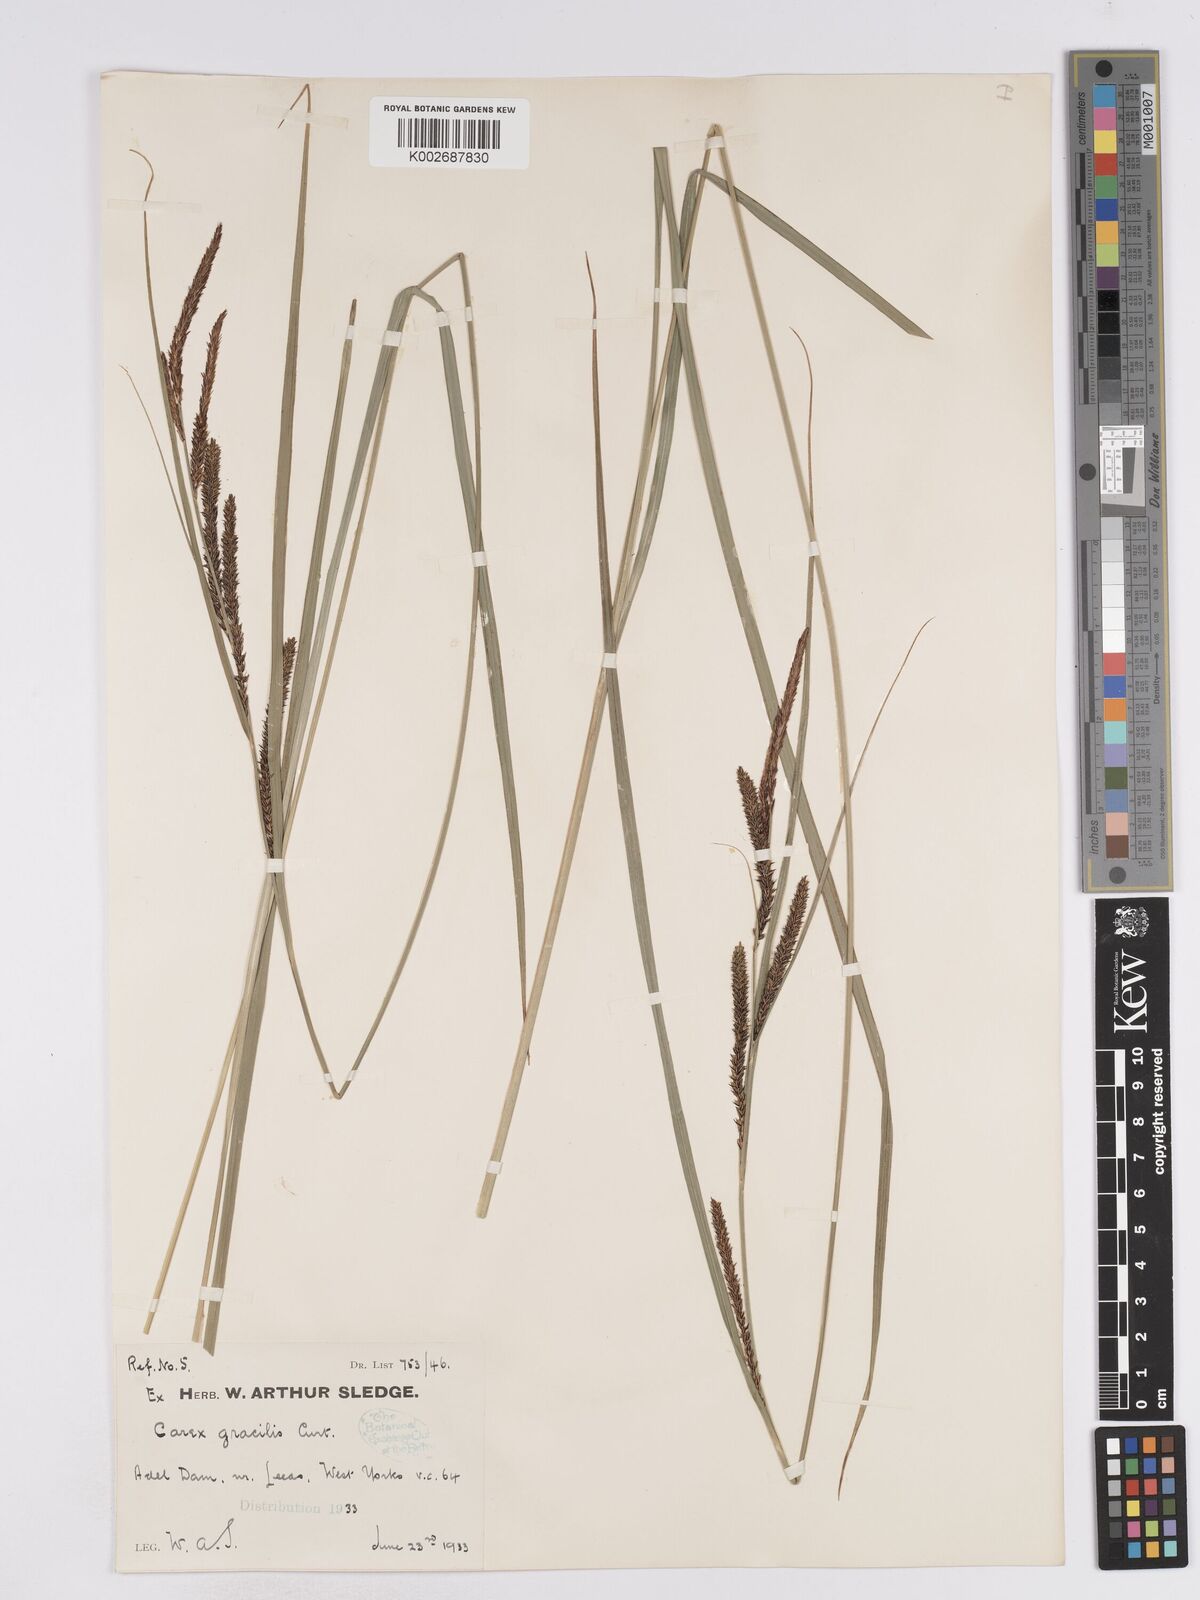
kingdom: Plantae
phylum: Tracheophyta
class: Liliopsida
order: Poales
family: Cyperaceae
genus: Carex
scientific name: Carex acuta
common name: Slender tufted-sedge
